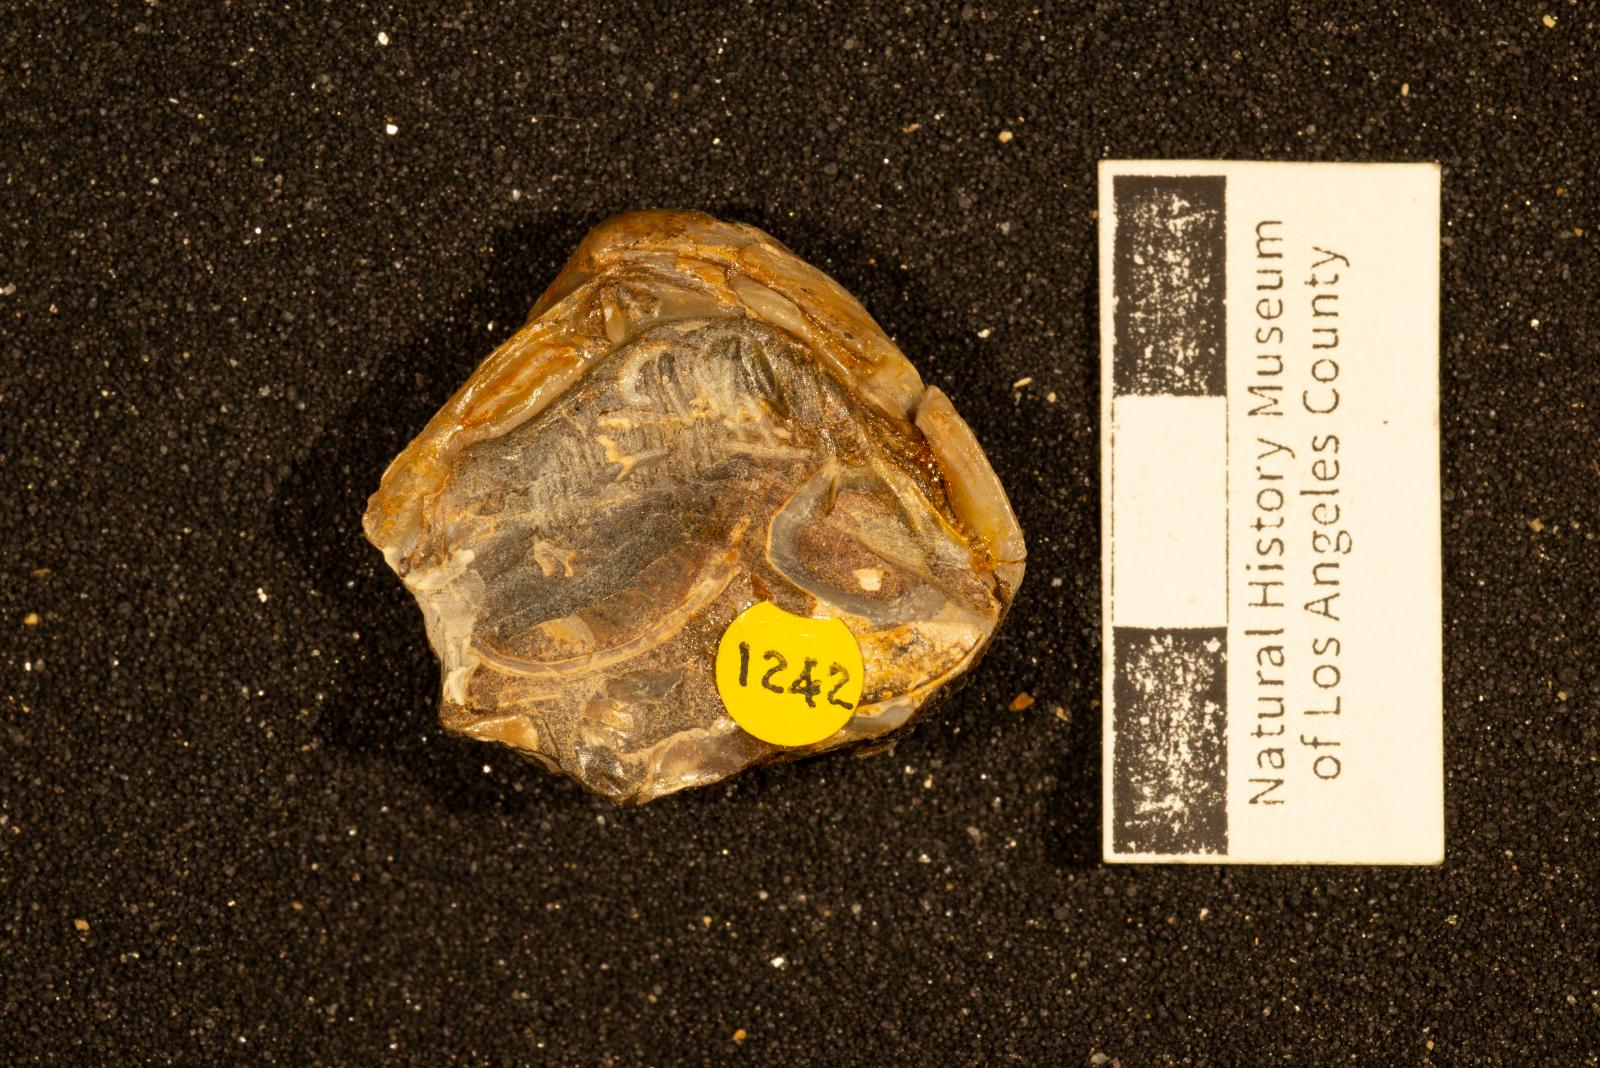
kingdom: Animalia
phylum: Mollusca
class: Bivalvia
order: Venerida
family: Veneridae
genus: Calva
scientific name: Calva Trigonocallista taffi
